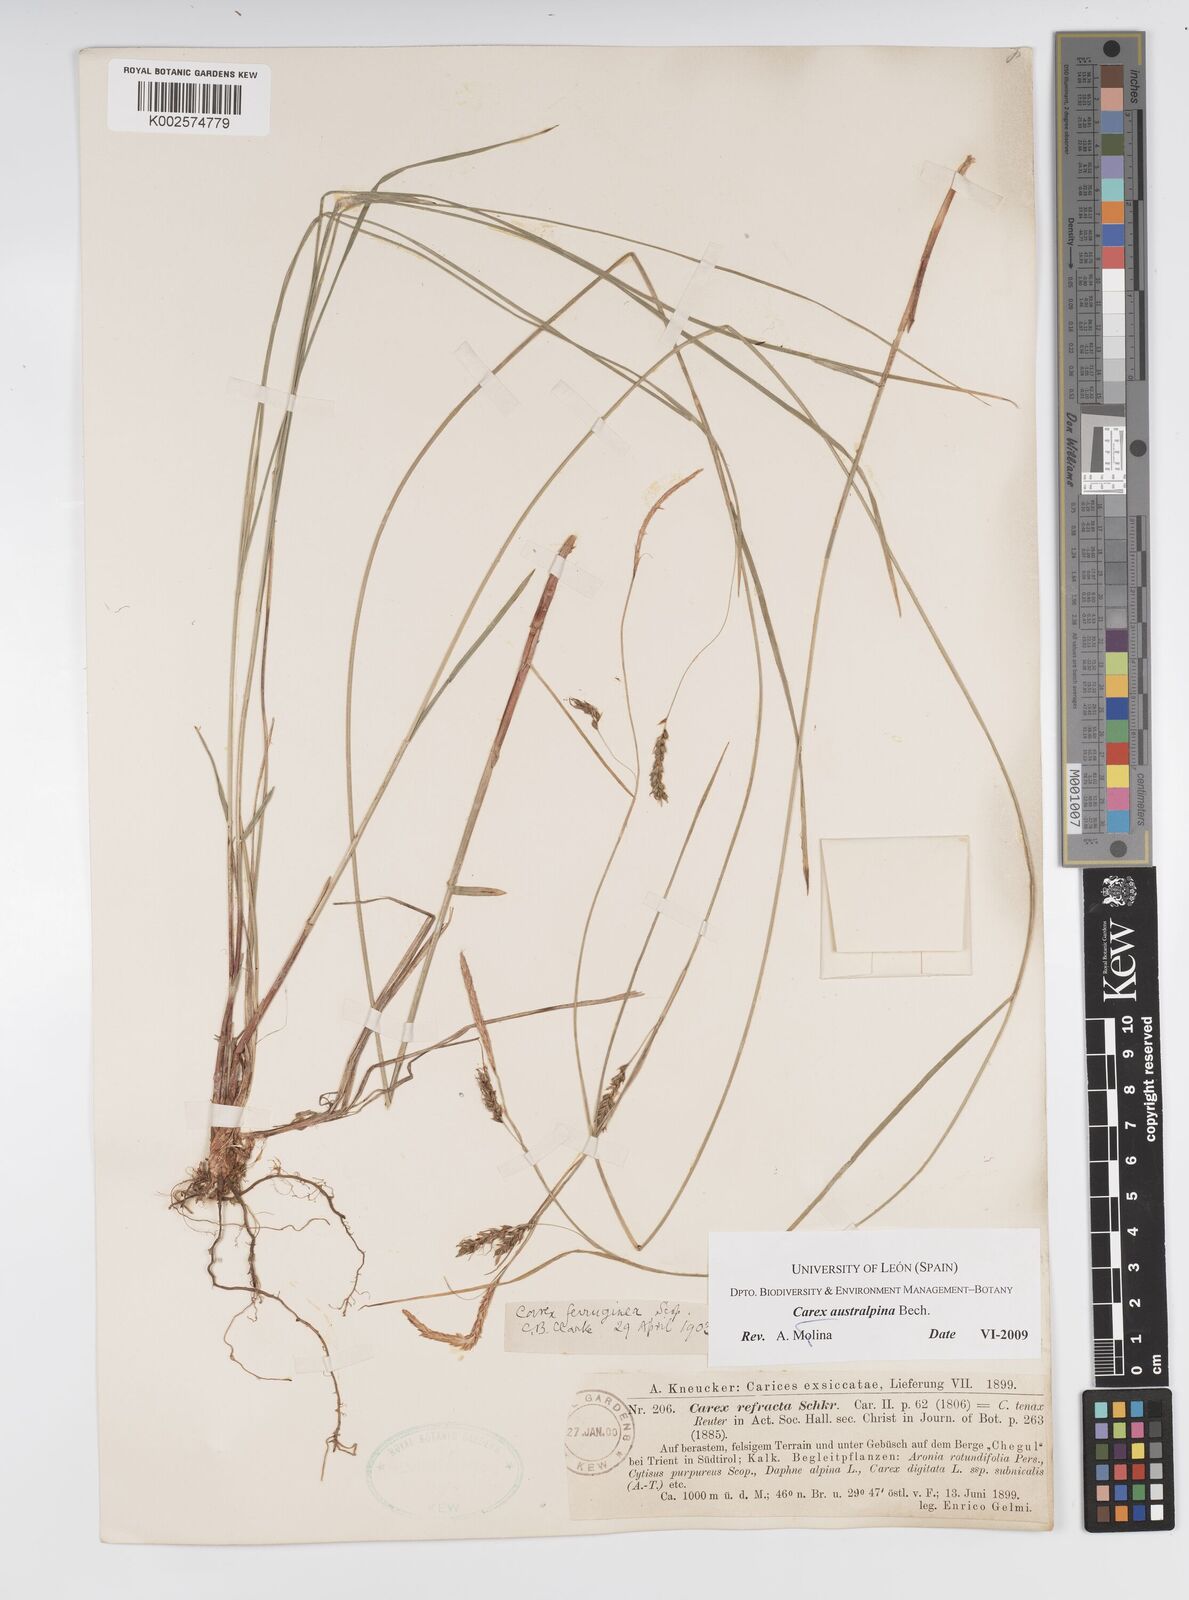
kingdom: Plantae
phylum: Tracheophyta
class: Liliopsida
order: Poales
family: Cyperaceae
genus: Carex
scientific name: Carex austroalpina
